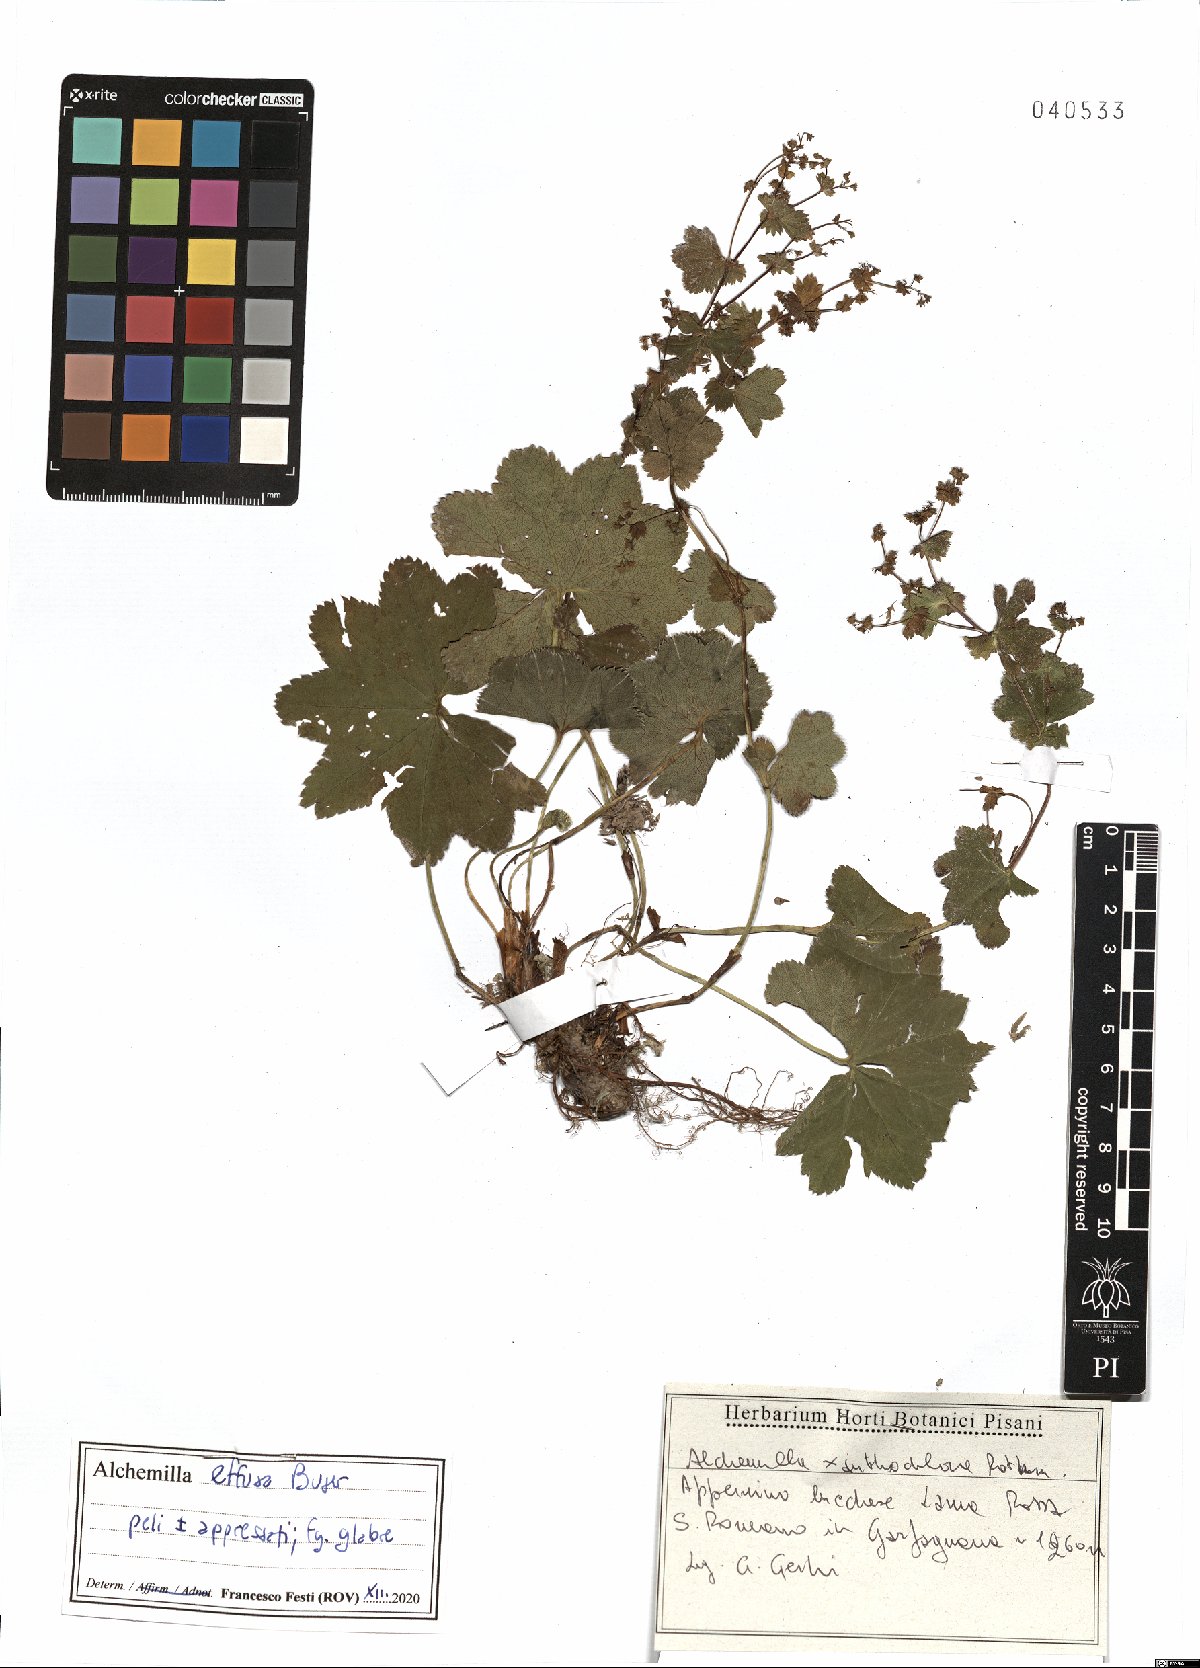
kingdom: Plantae
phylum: Tracheophyta
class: Magnoliopsida
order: Rosales
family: Rosaceae
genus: Alchemilla
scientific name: Alchemilla effusa
